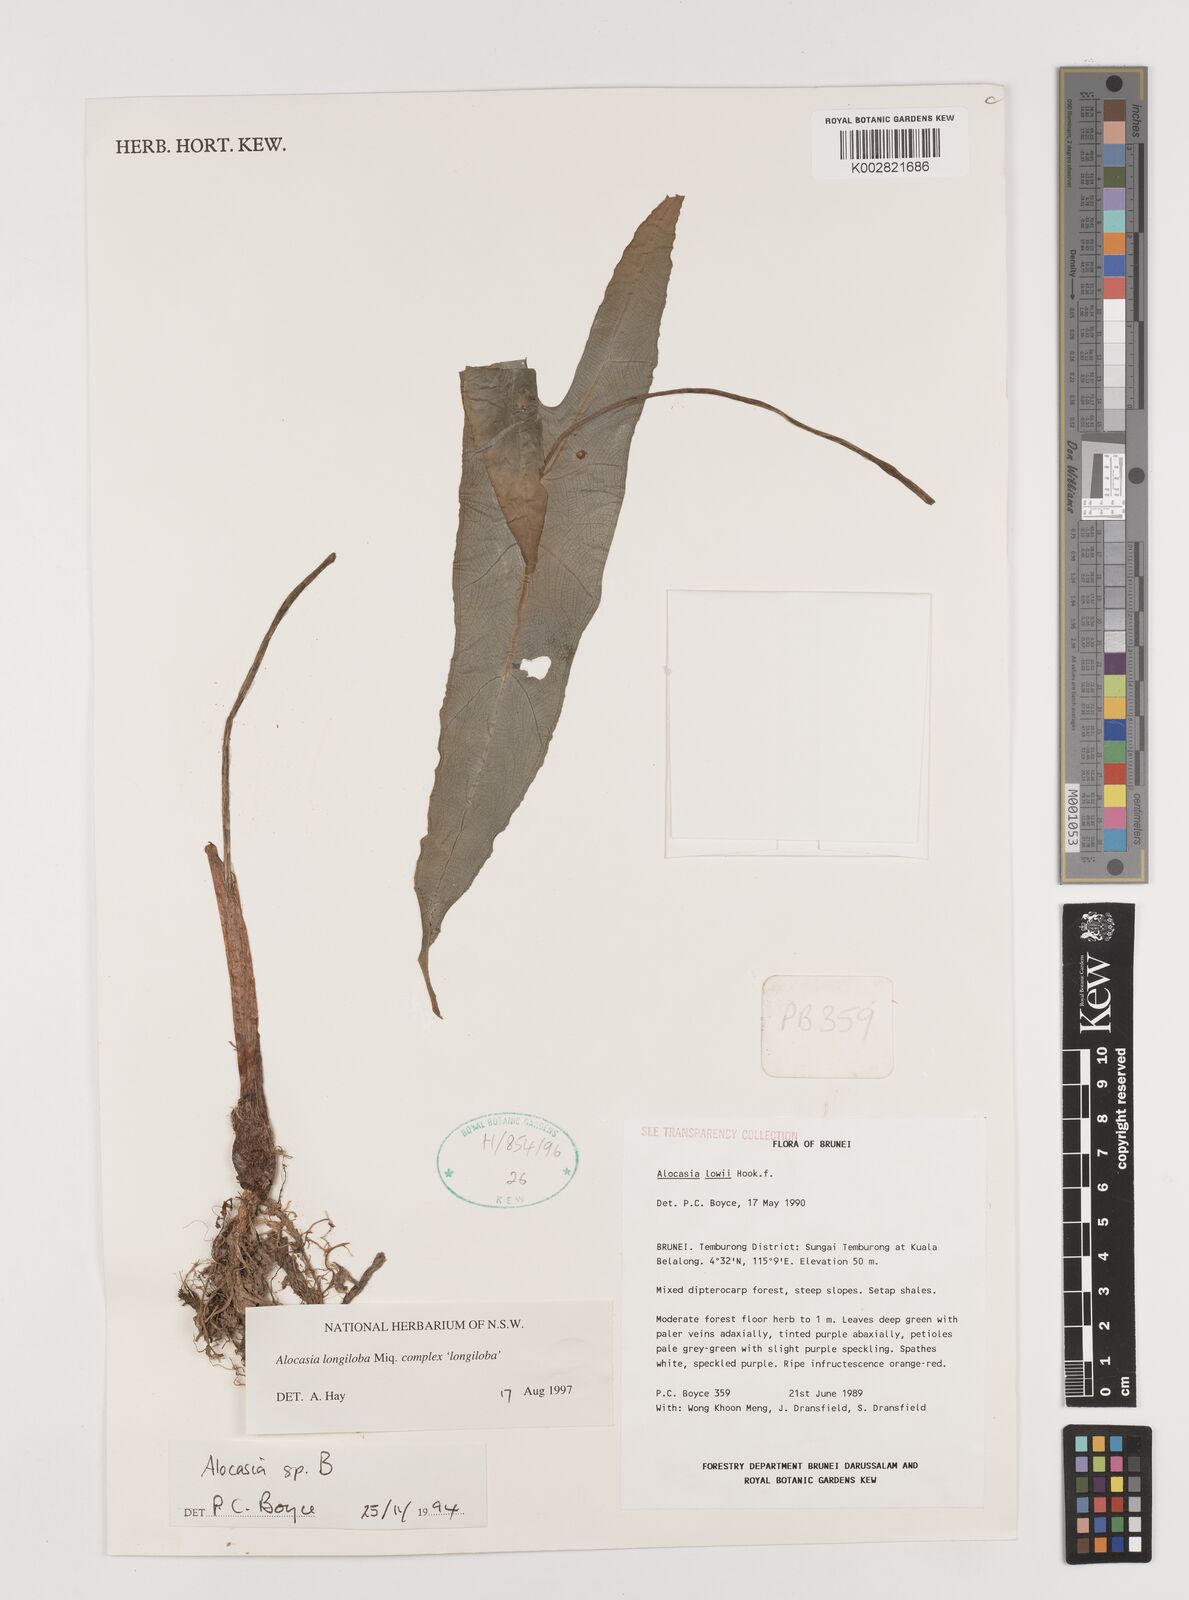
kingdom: Plantae
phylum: Tracheophyta
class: Liliopsida
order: Alismatales
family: Araceae
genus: Alocasia
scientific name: Alocasia longiloba
